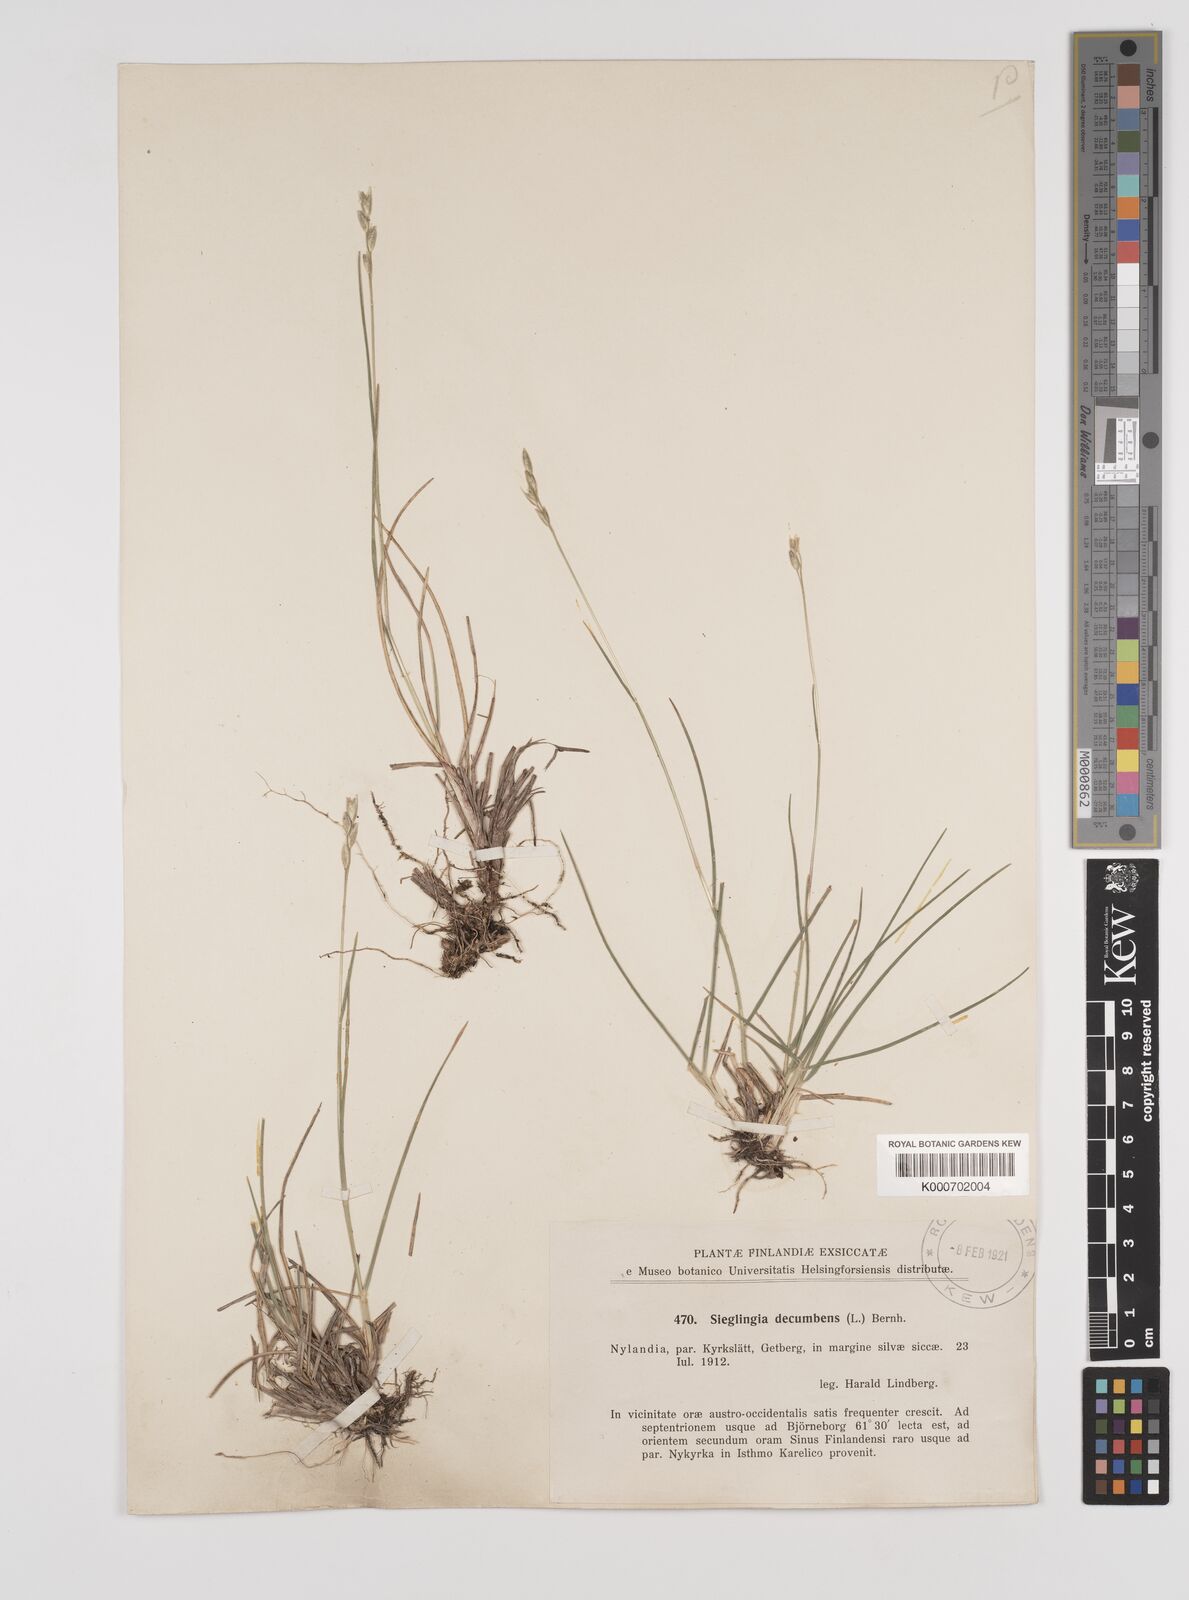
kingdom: Plantae
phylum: Tracheophyta
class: Liliopsida
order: Poales
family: Poaceae
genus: Danthonia
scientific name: Danthonia decumbens
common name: Common heathgrass
